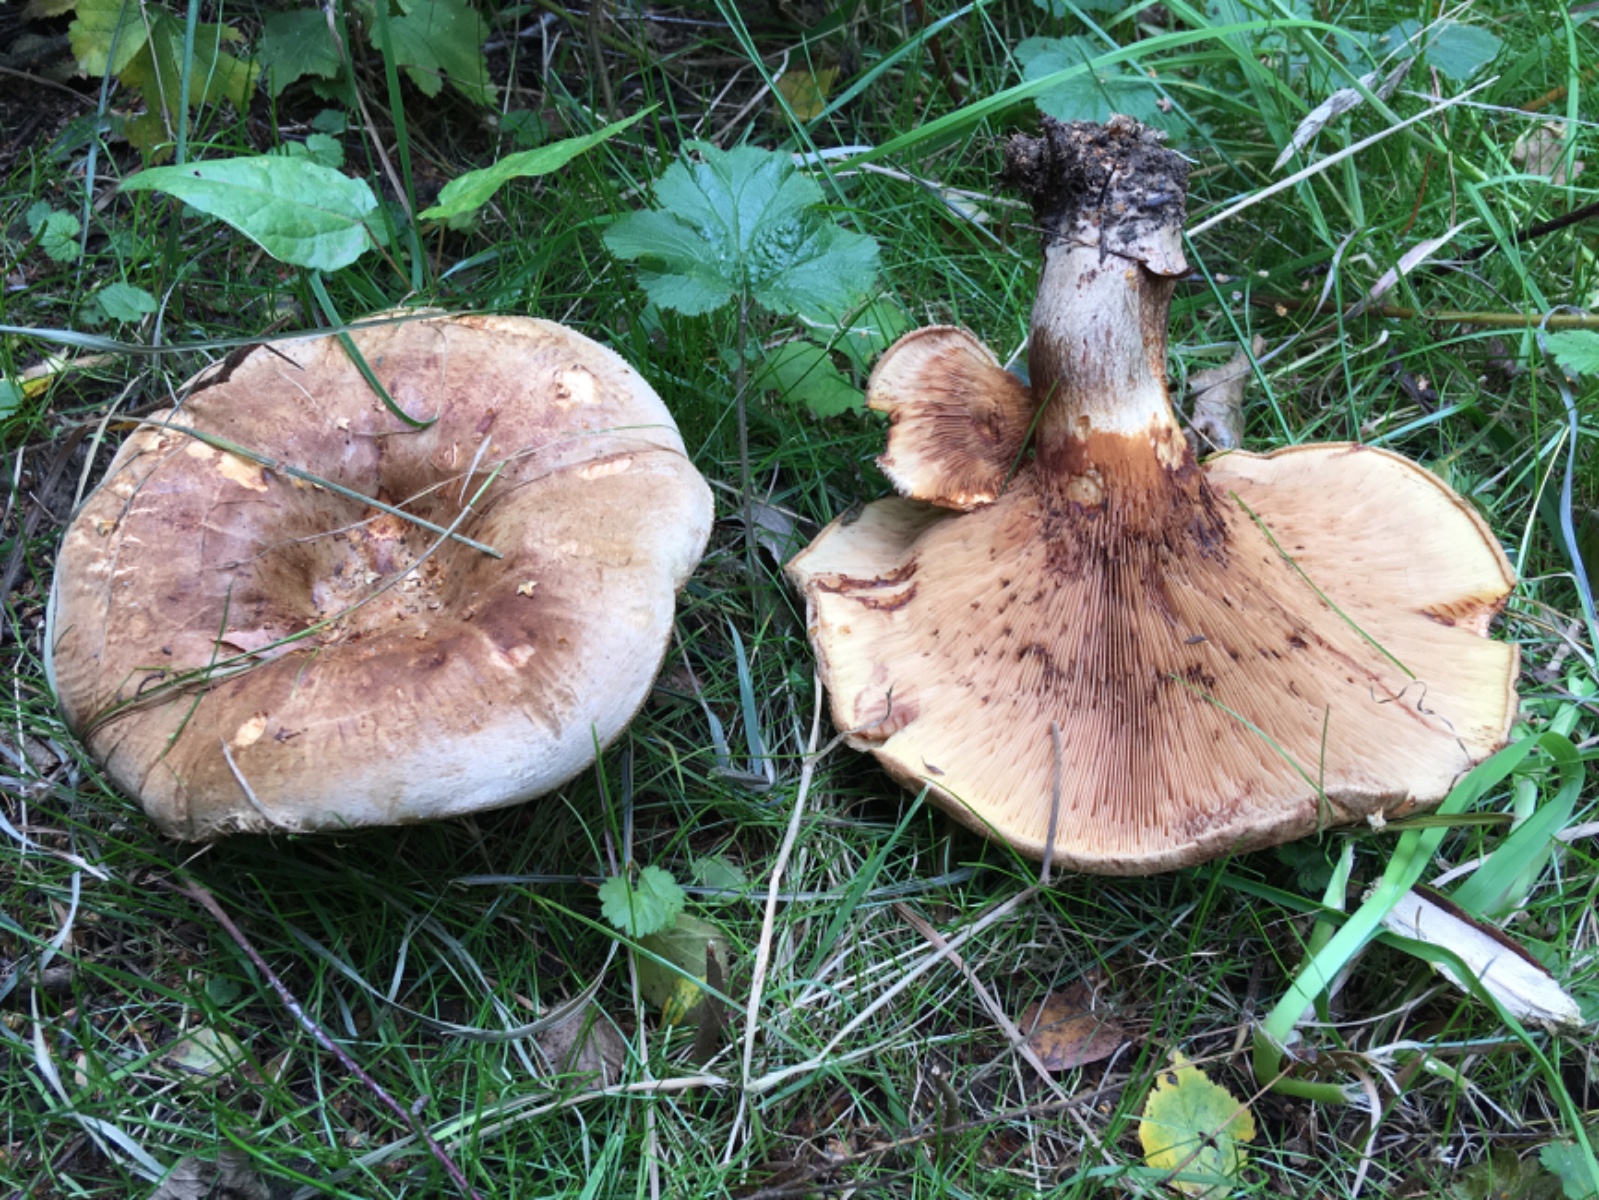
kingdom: Fungi
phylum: Basidiomycota
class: Agaricomycetes
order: Boletales
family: Paxillaceae
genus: Paxillus
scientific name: Paxillus obscurisporus
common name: mahognisporet netbladhat
